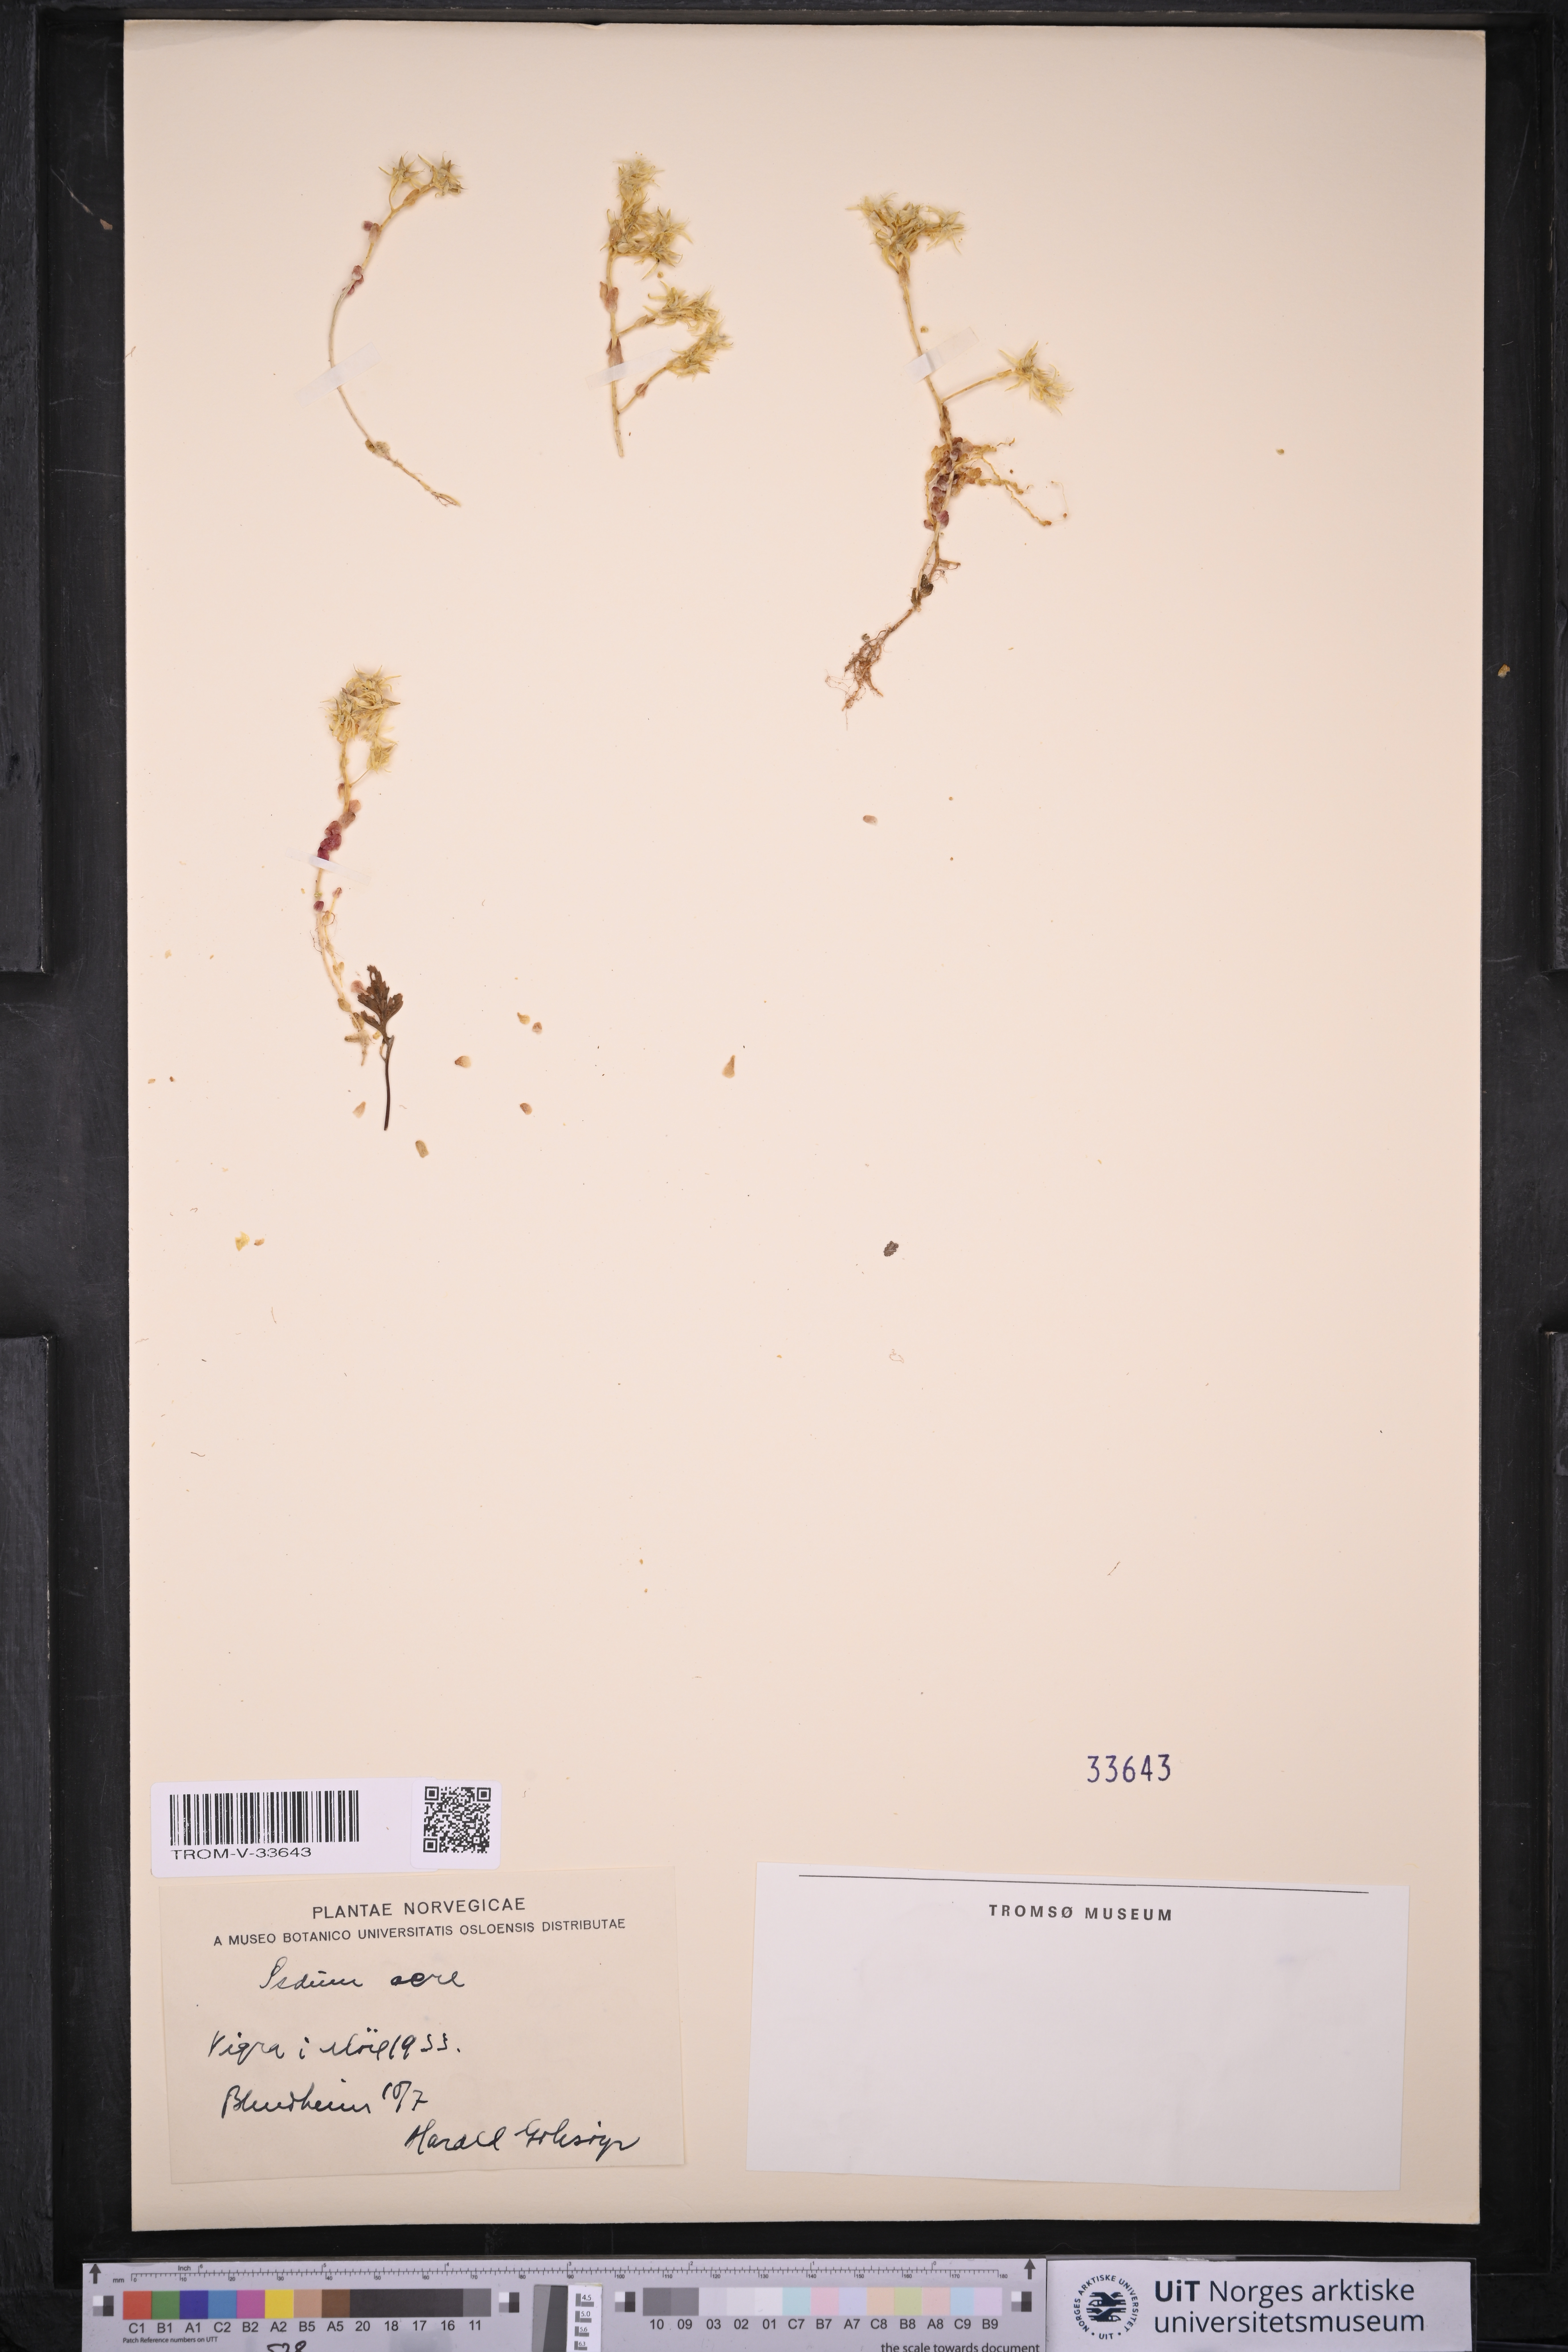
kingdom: Plantae
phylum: Tracheophyta
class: Magnoliopsida
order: Saxifragales
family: Crassulaceae
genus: Sedum
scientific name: Sedum acre
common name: Biting stonecrop
